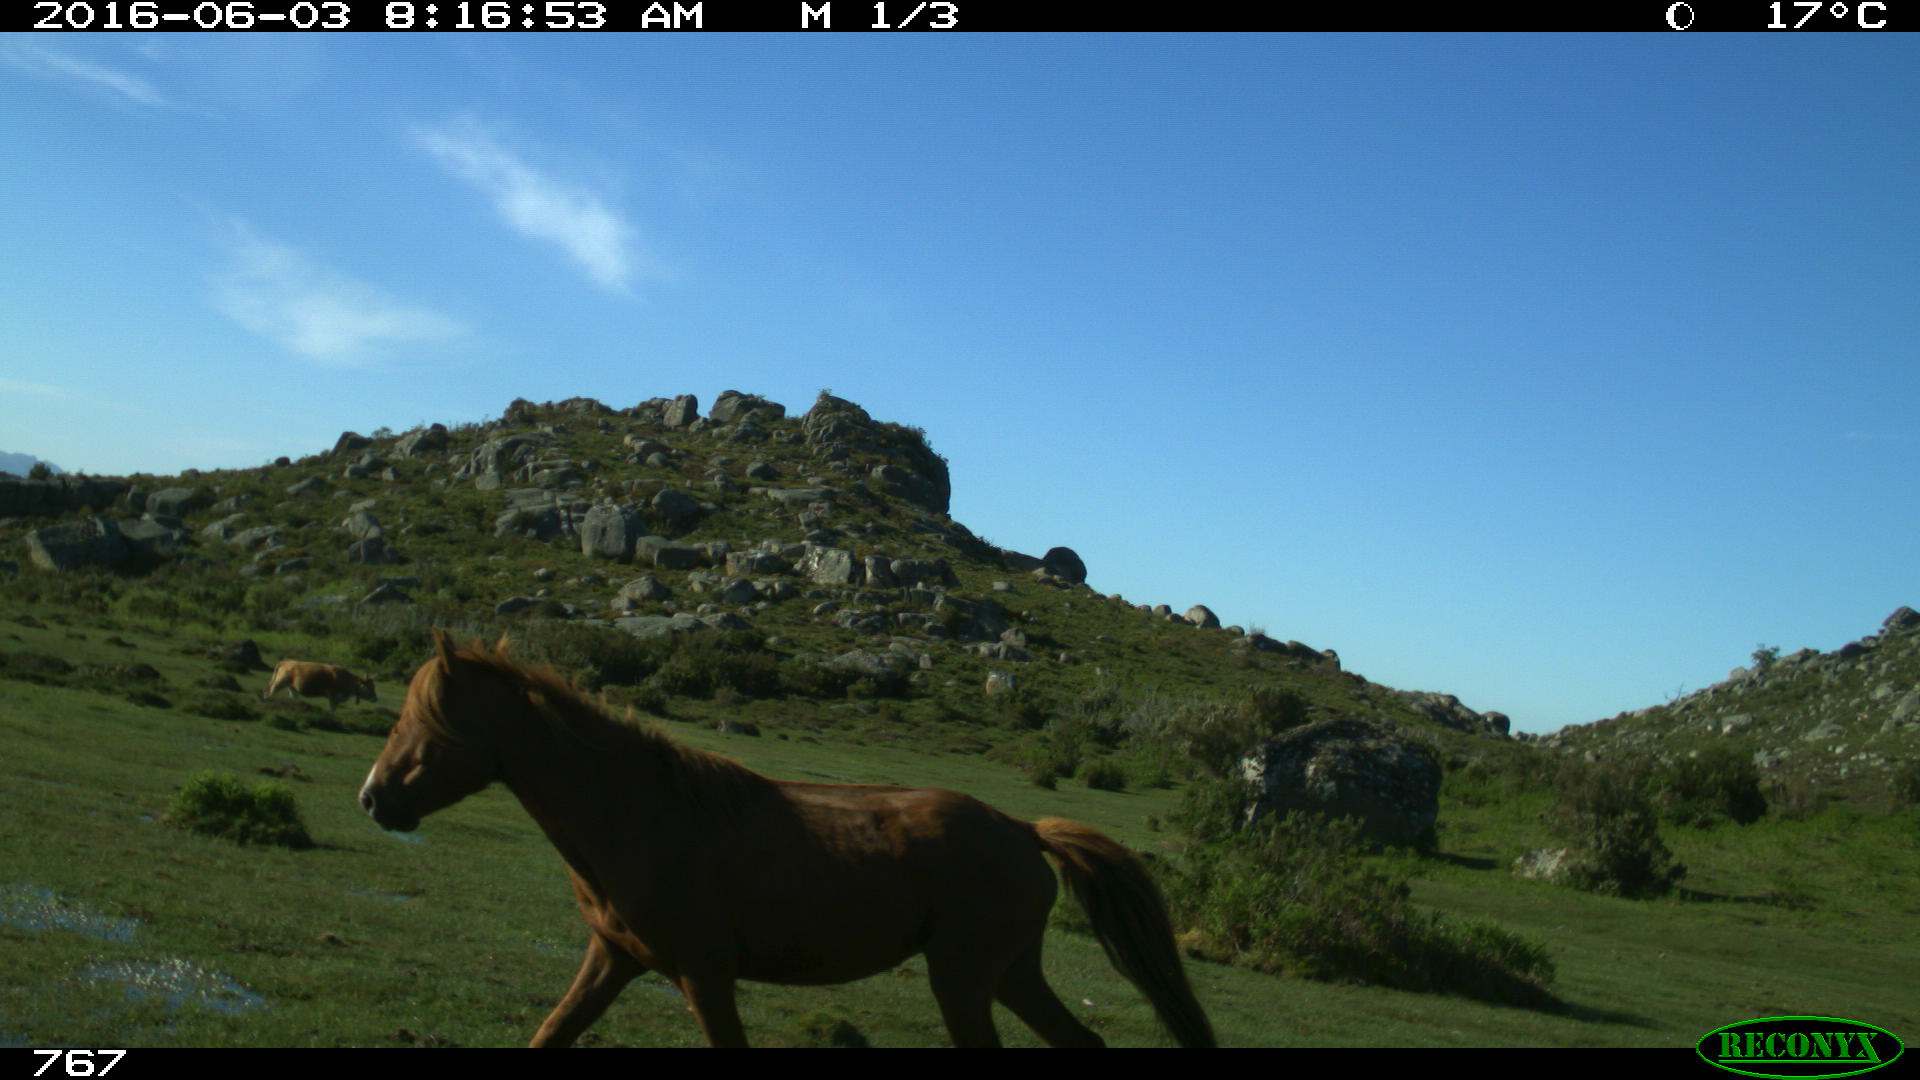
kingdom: Animalia
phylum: Chordata
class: Mammalia
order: Perissodactyla
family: Equidae
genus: Equus
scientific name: Equus caballus
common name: Horse
